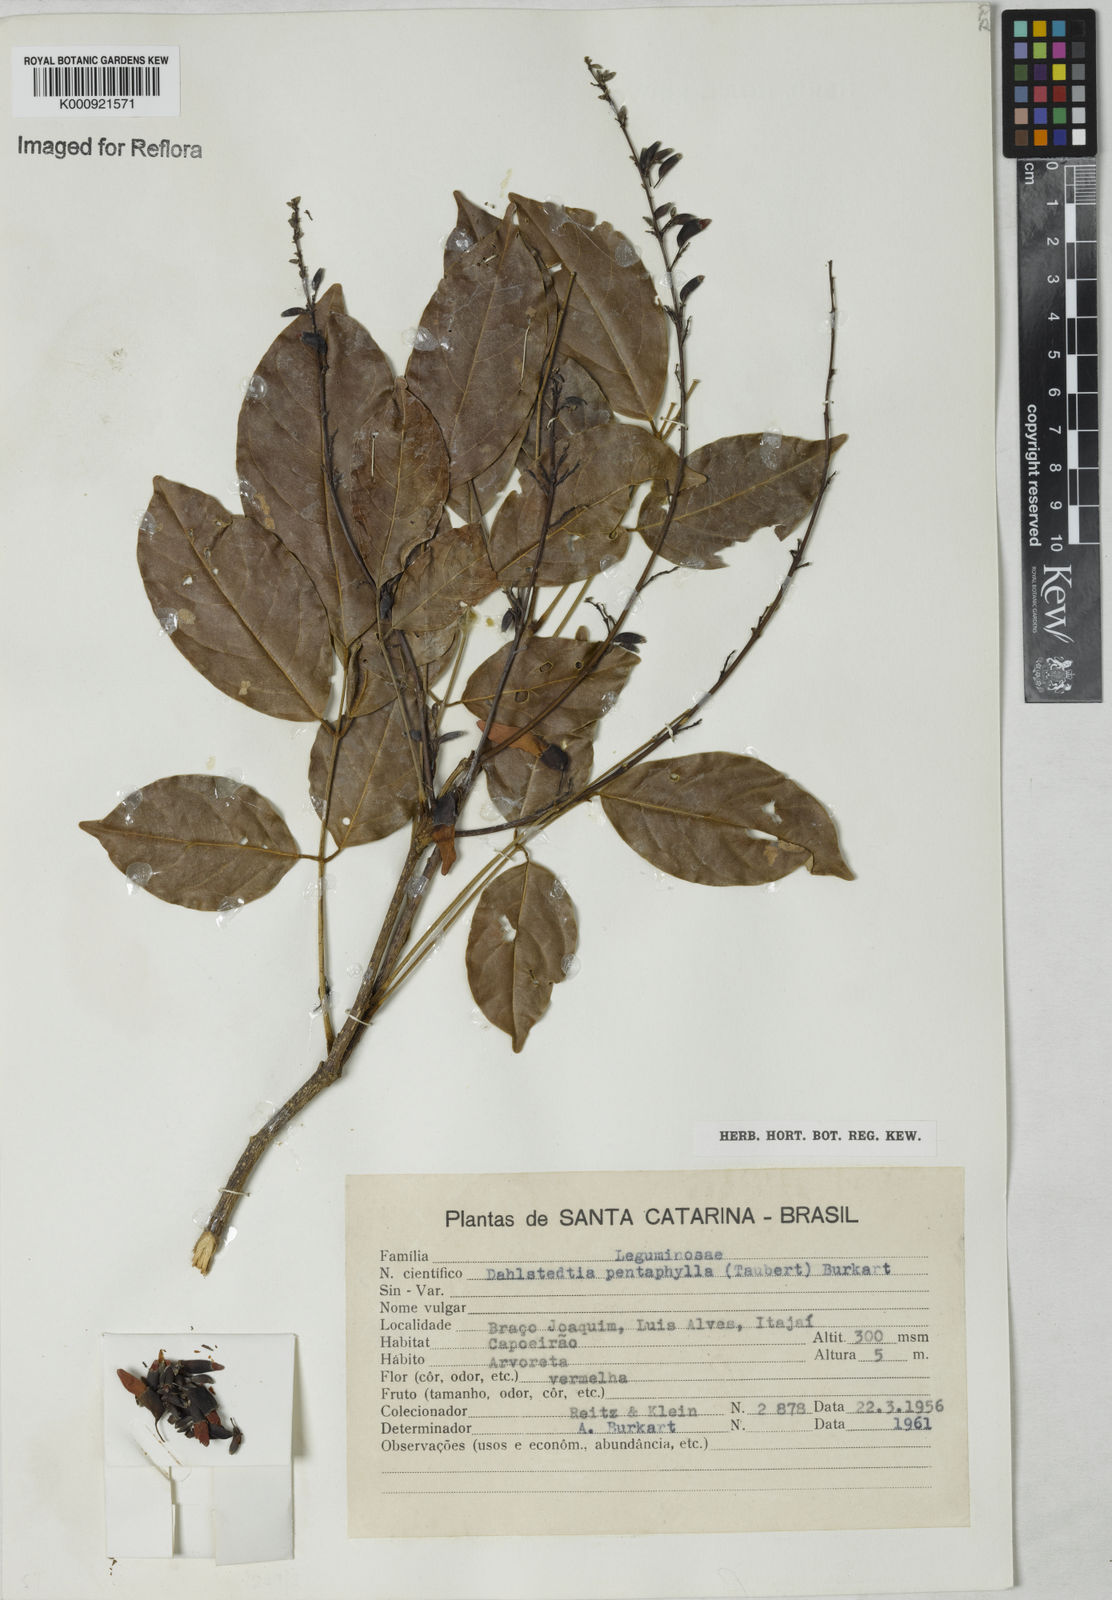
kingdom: Plantae
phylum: Tracheophyta
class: Magnoliopsida
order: Fabales
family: Fabaceae
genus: Dahlstedtia
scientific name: Dahlstedtia pentaphylla
